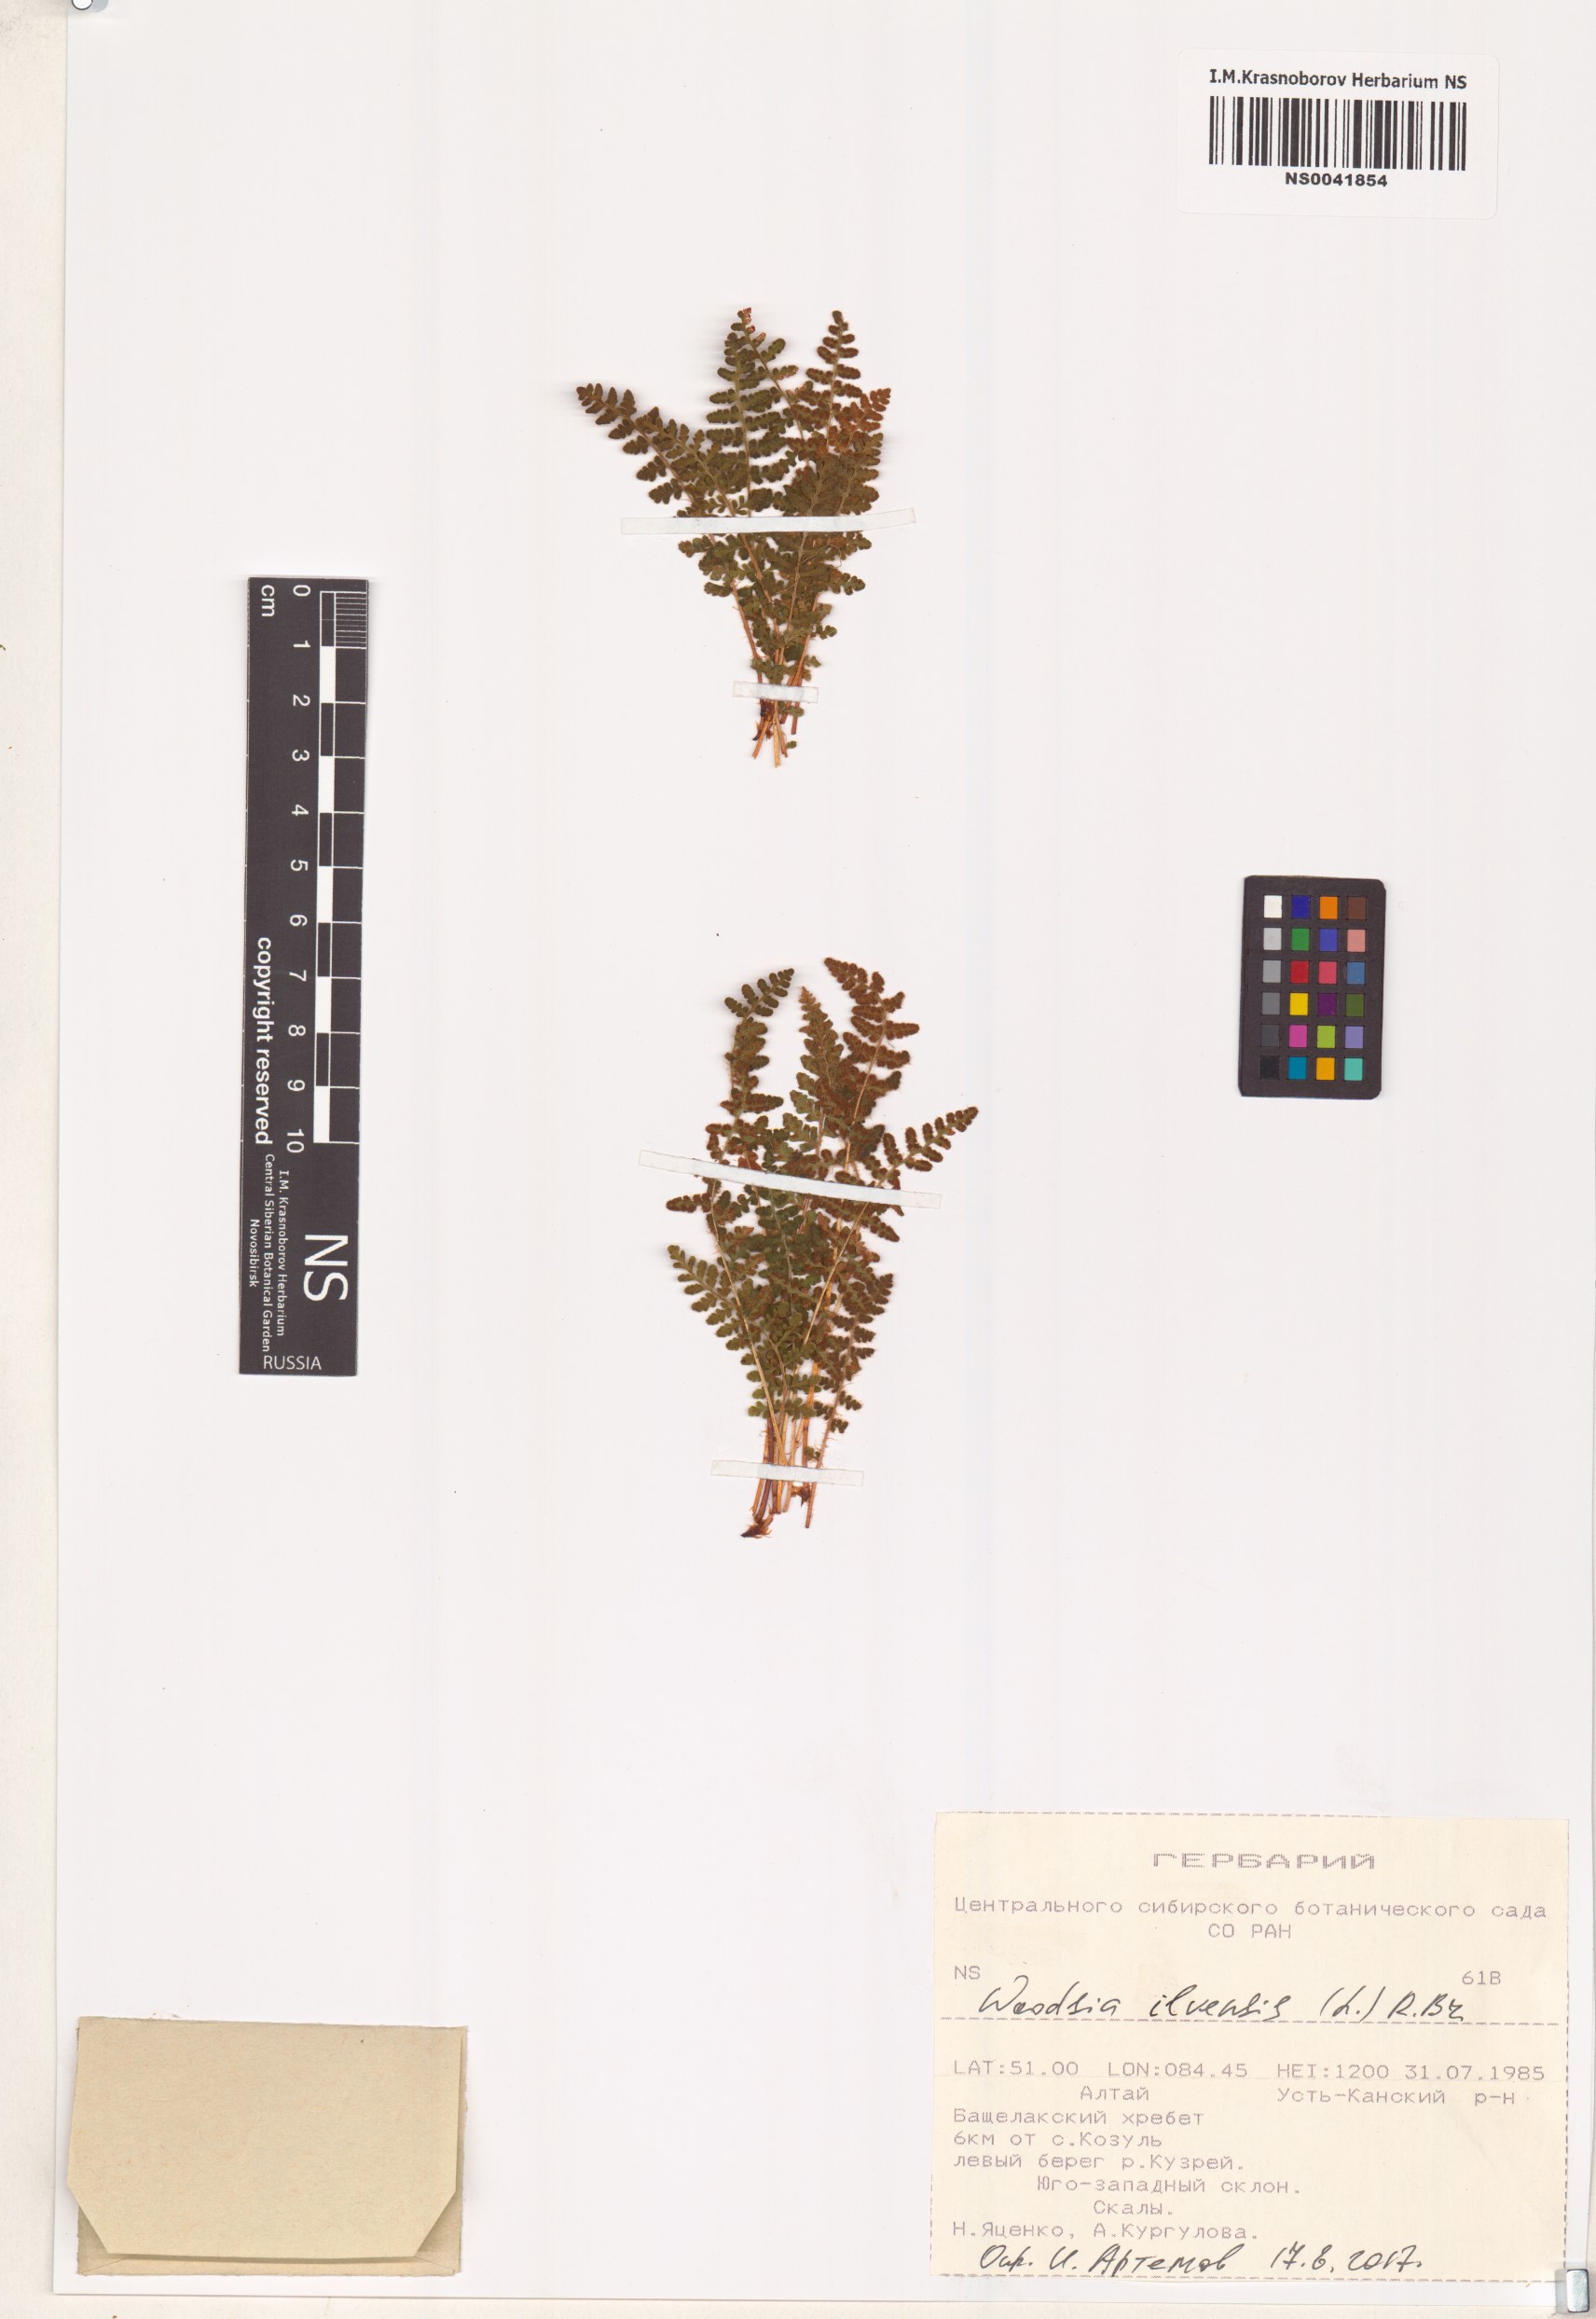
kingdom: Plantae
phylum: Tracheophyta
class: Polypodiopsida
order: Polypodiales
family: Woodsiaceae
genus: Woodsia
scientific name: Woodsia ilvensis
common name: Fragrant woodsia
